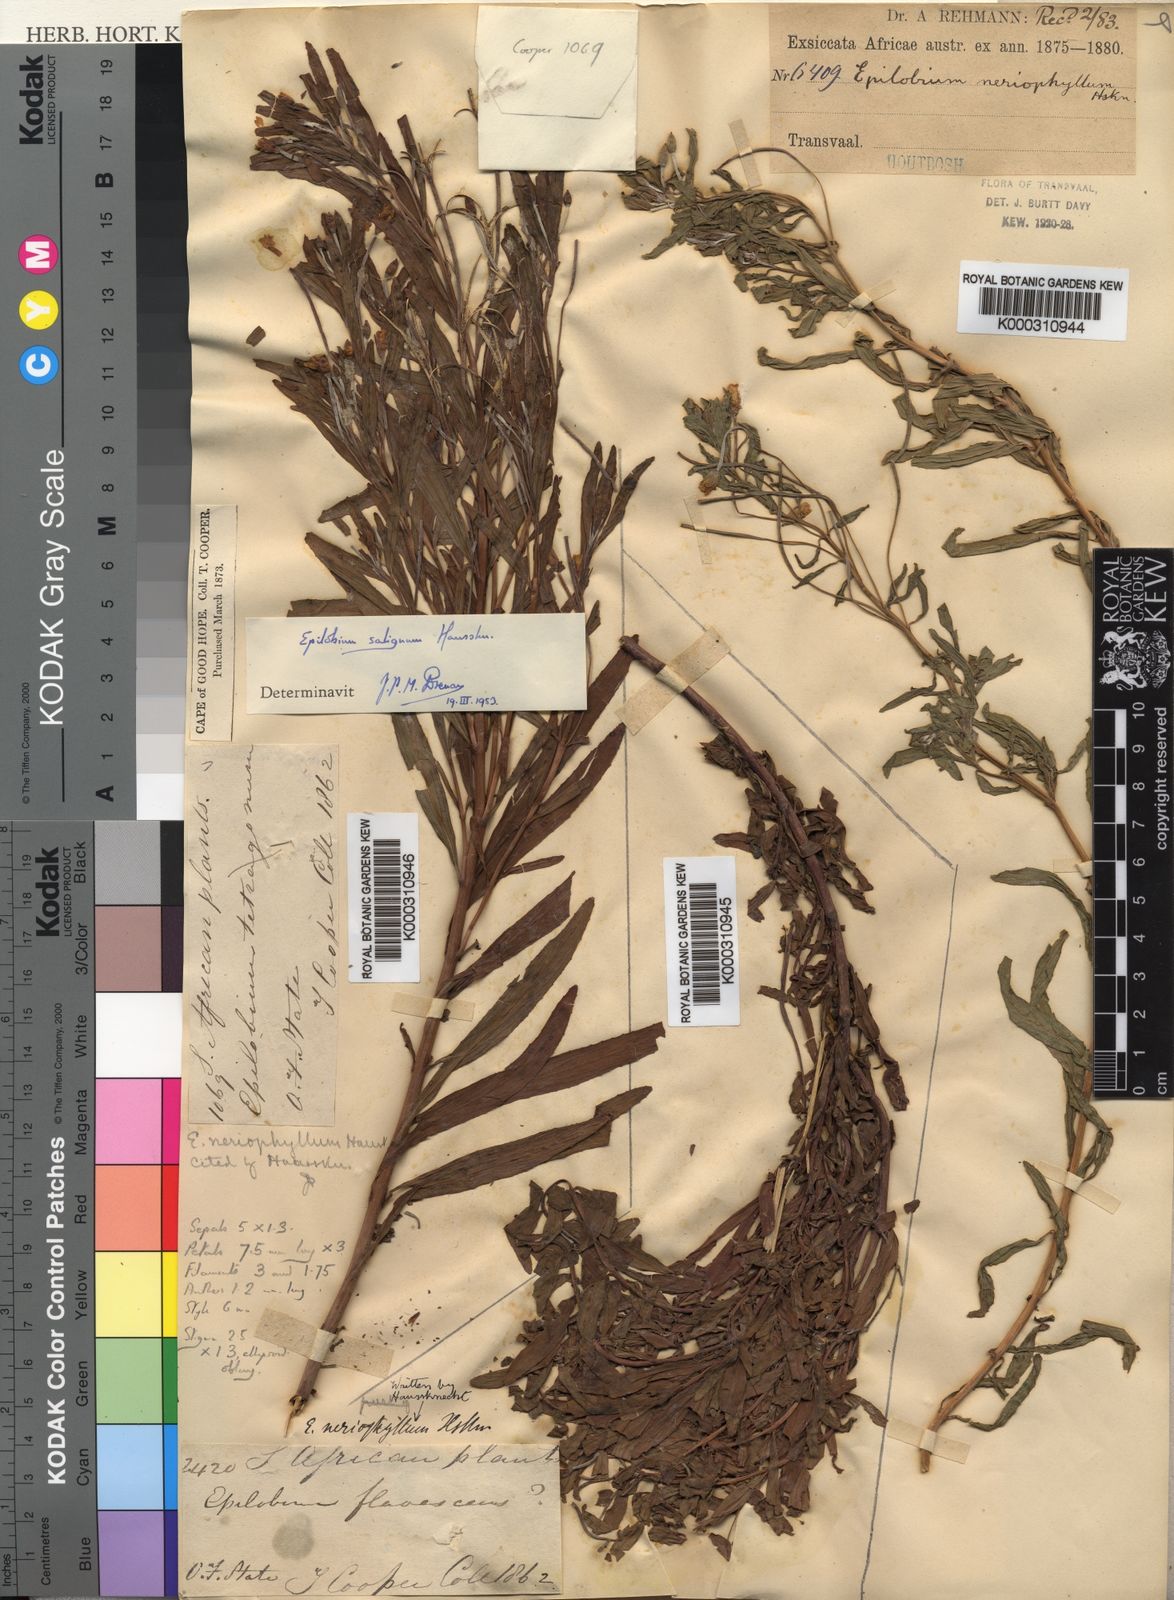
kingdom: Plantae
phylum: Tracheophyta
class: Magnoliopsida
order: Myrtales
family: Onagraceae
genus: Epilobium
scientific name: Epilobium salignum
